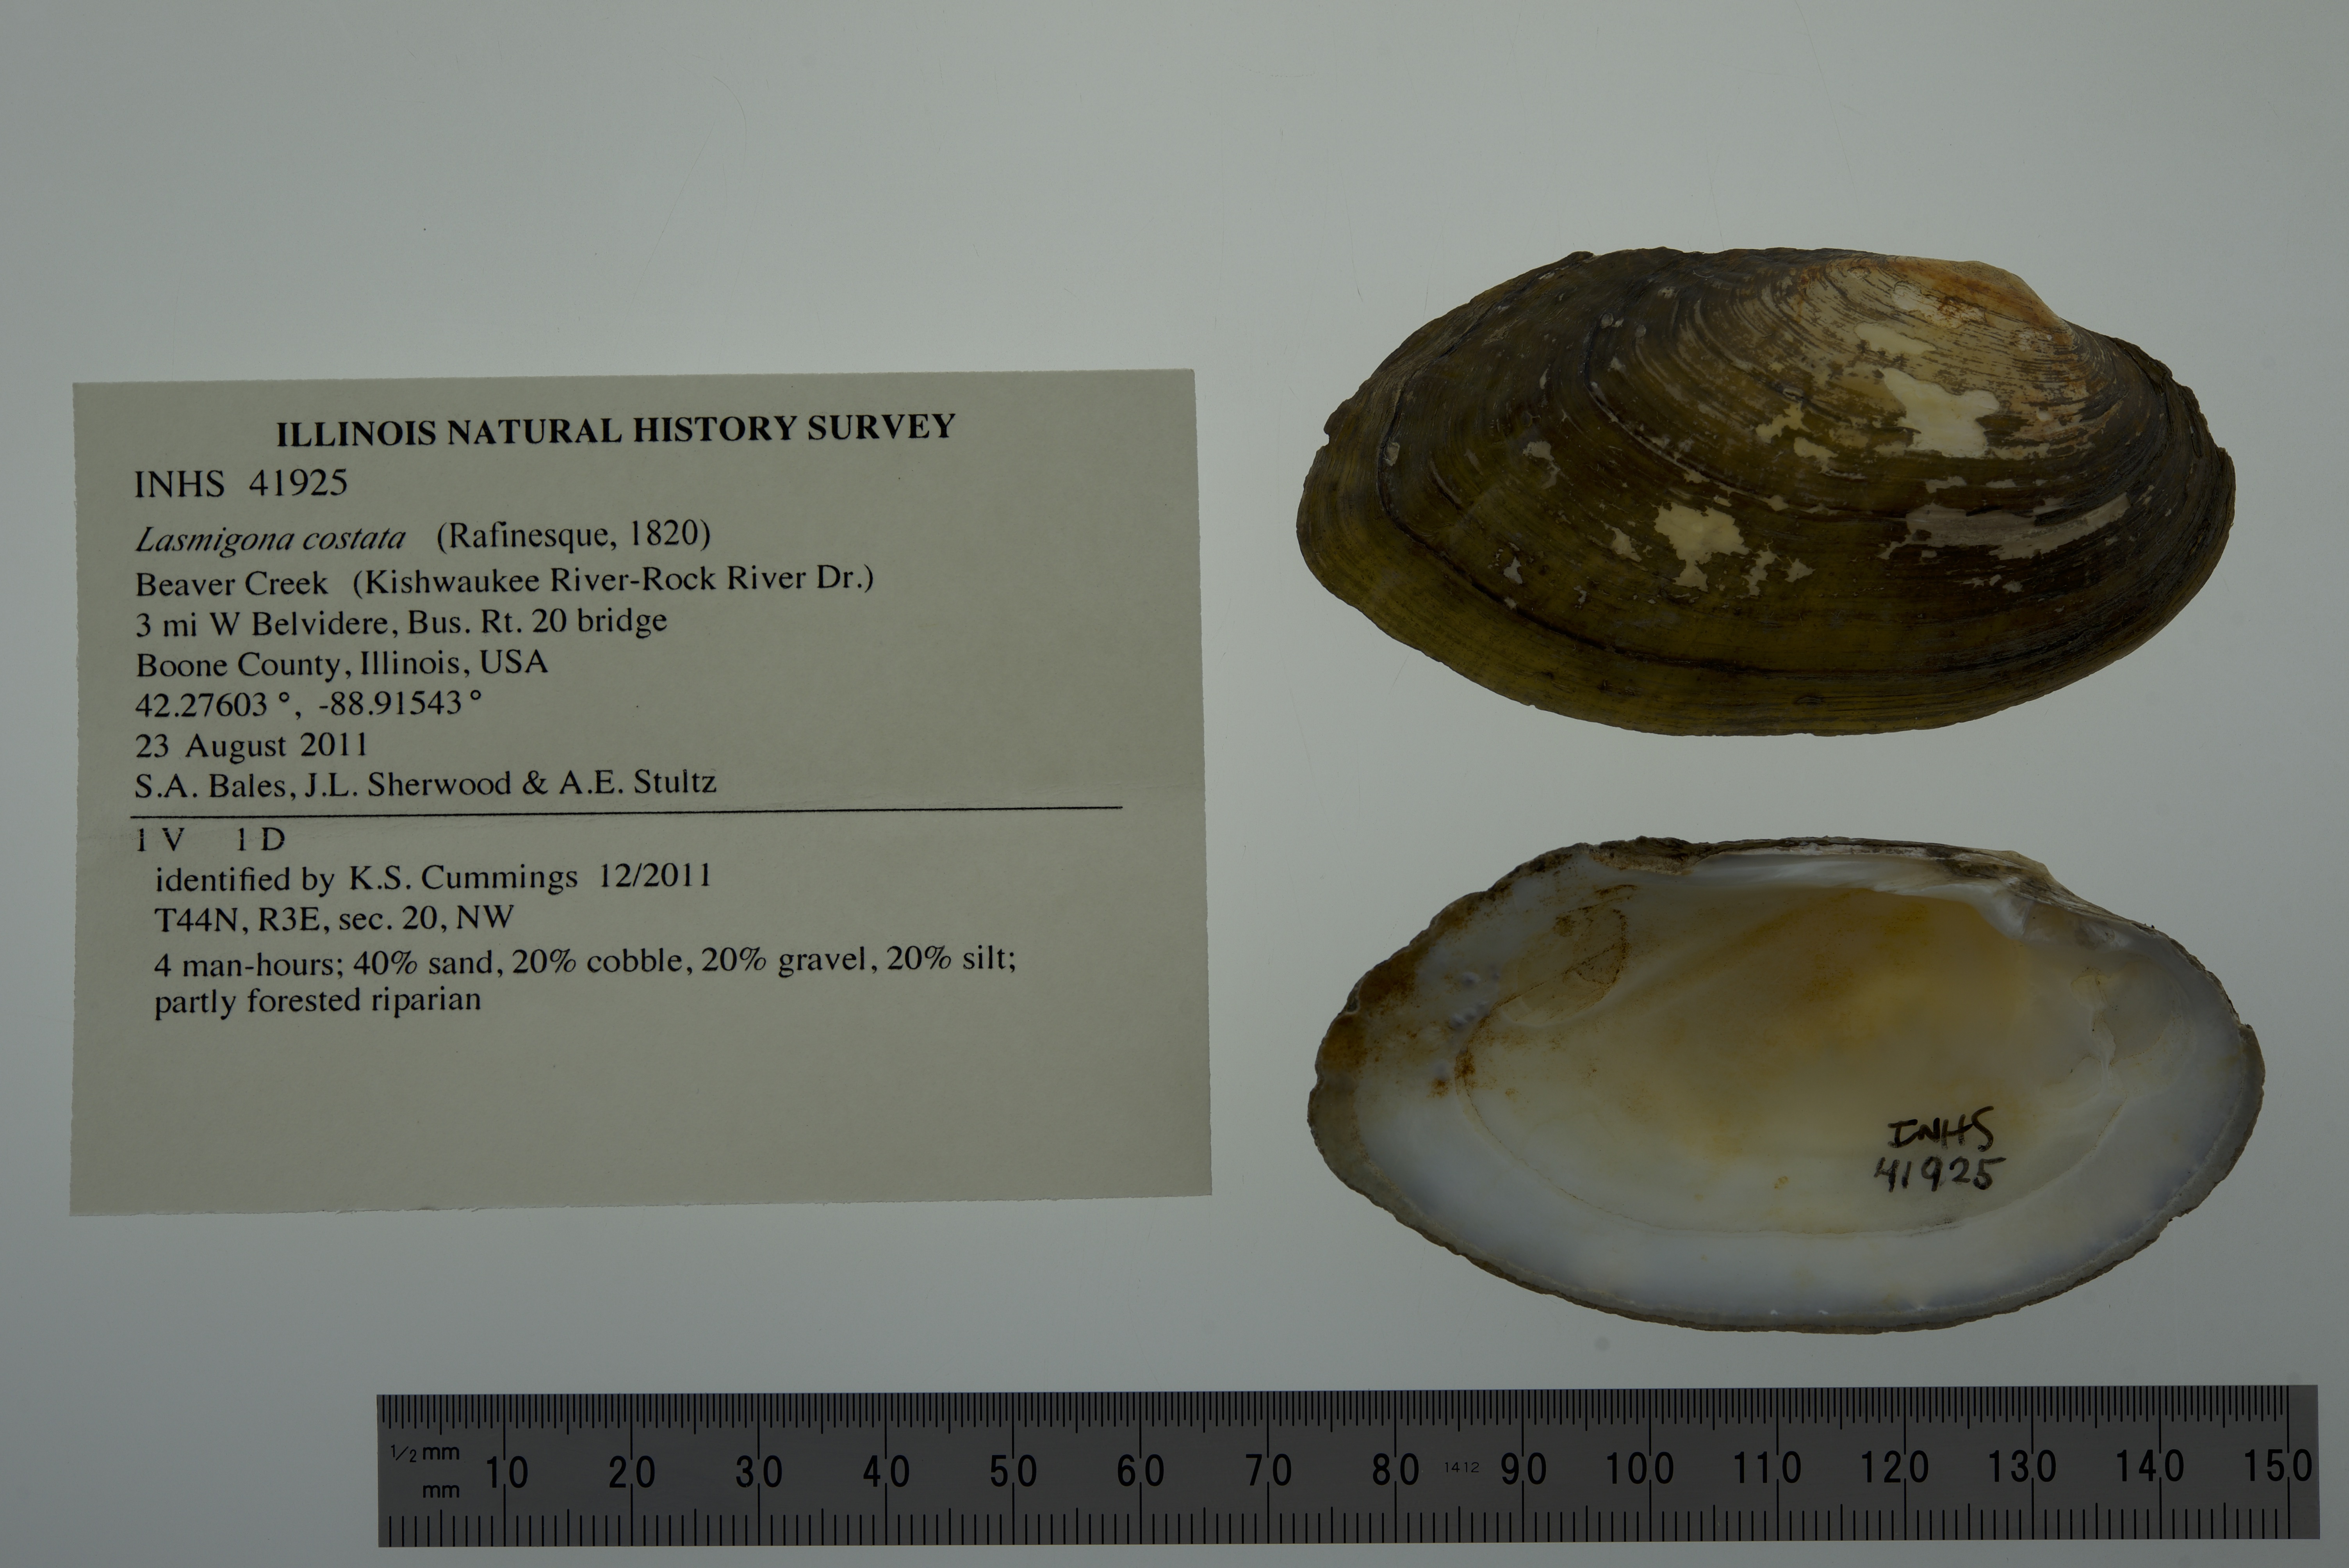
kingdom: Animalia
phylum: Mollusca
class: Bivalvia
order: Unionida
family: Unionidae
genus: Lasmigona
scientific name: Lasmigona costata
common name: Flutedshell
